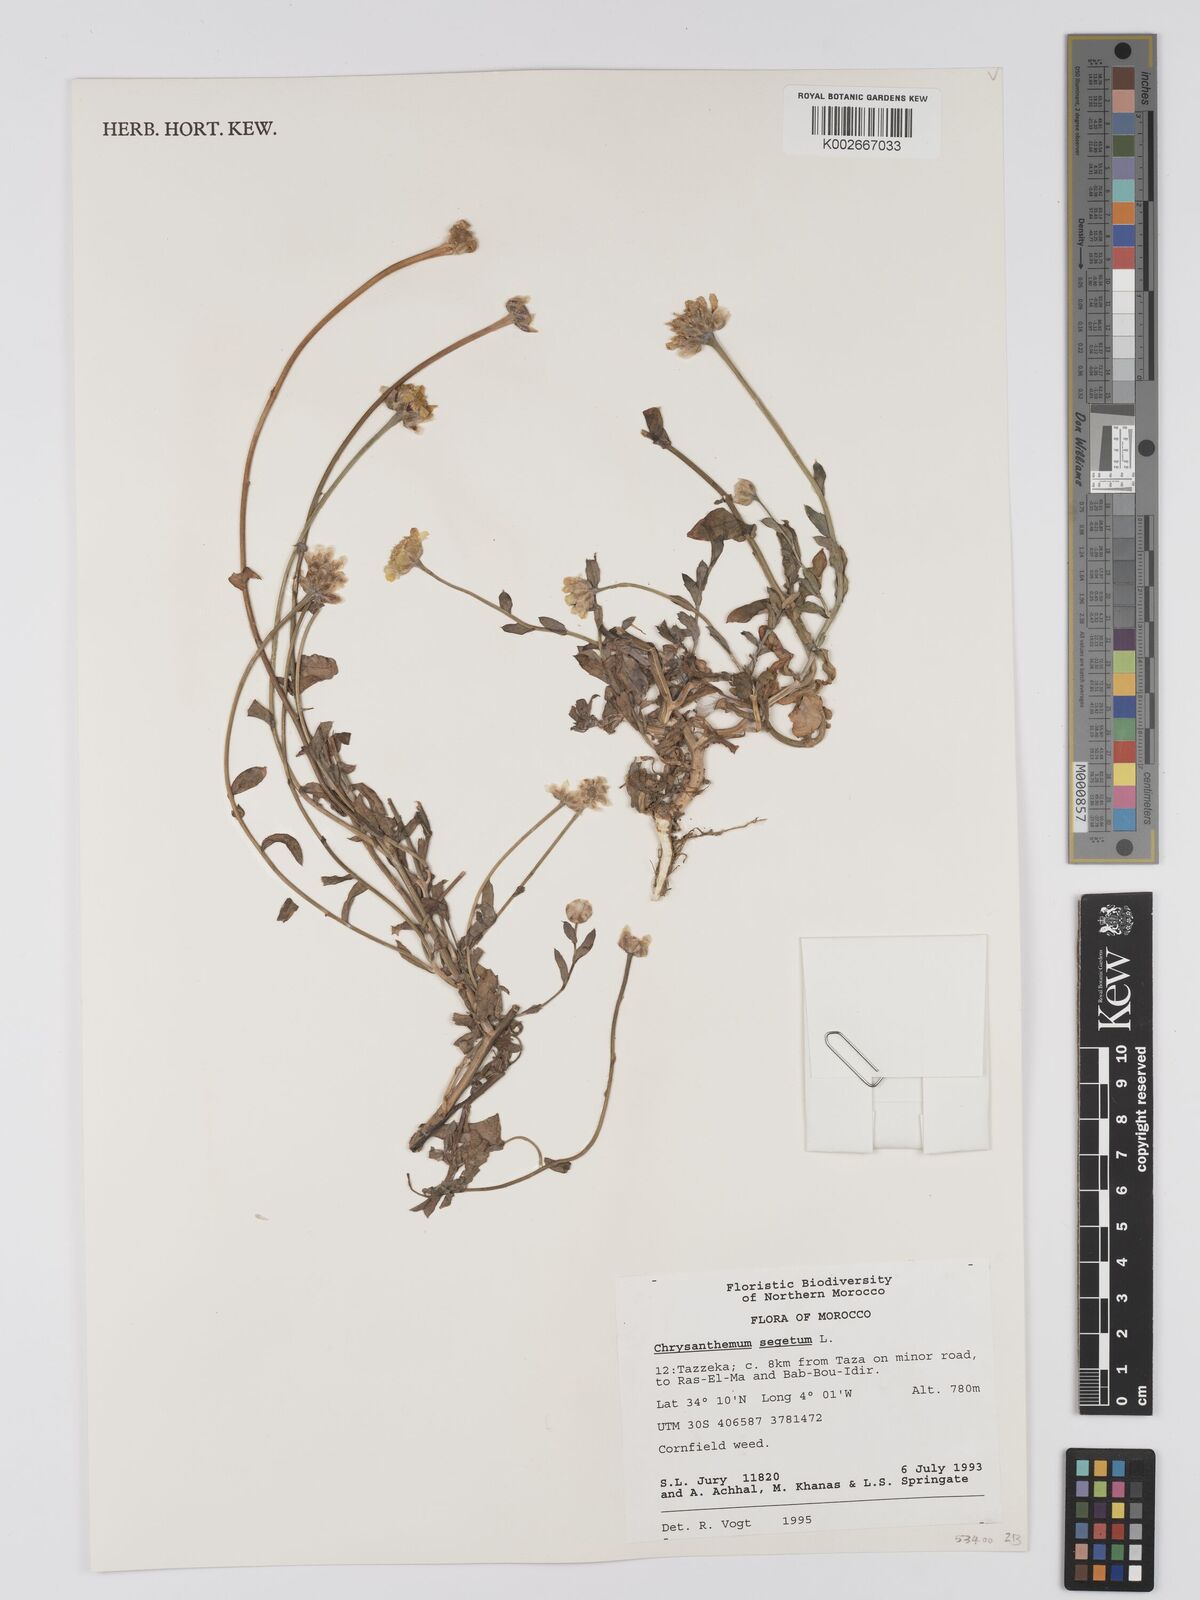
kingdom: Plantae
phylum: Tracheophyta
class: Magnoliopsida
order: Asterales
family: Asteraceae
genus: Glebionis
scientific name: Glebionis segetum
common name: Corndaisy
